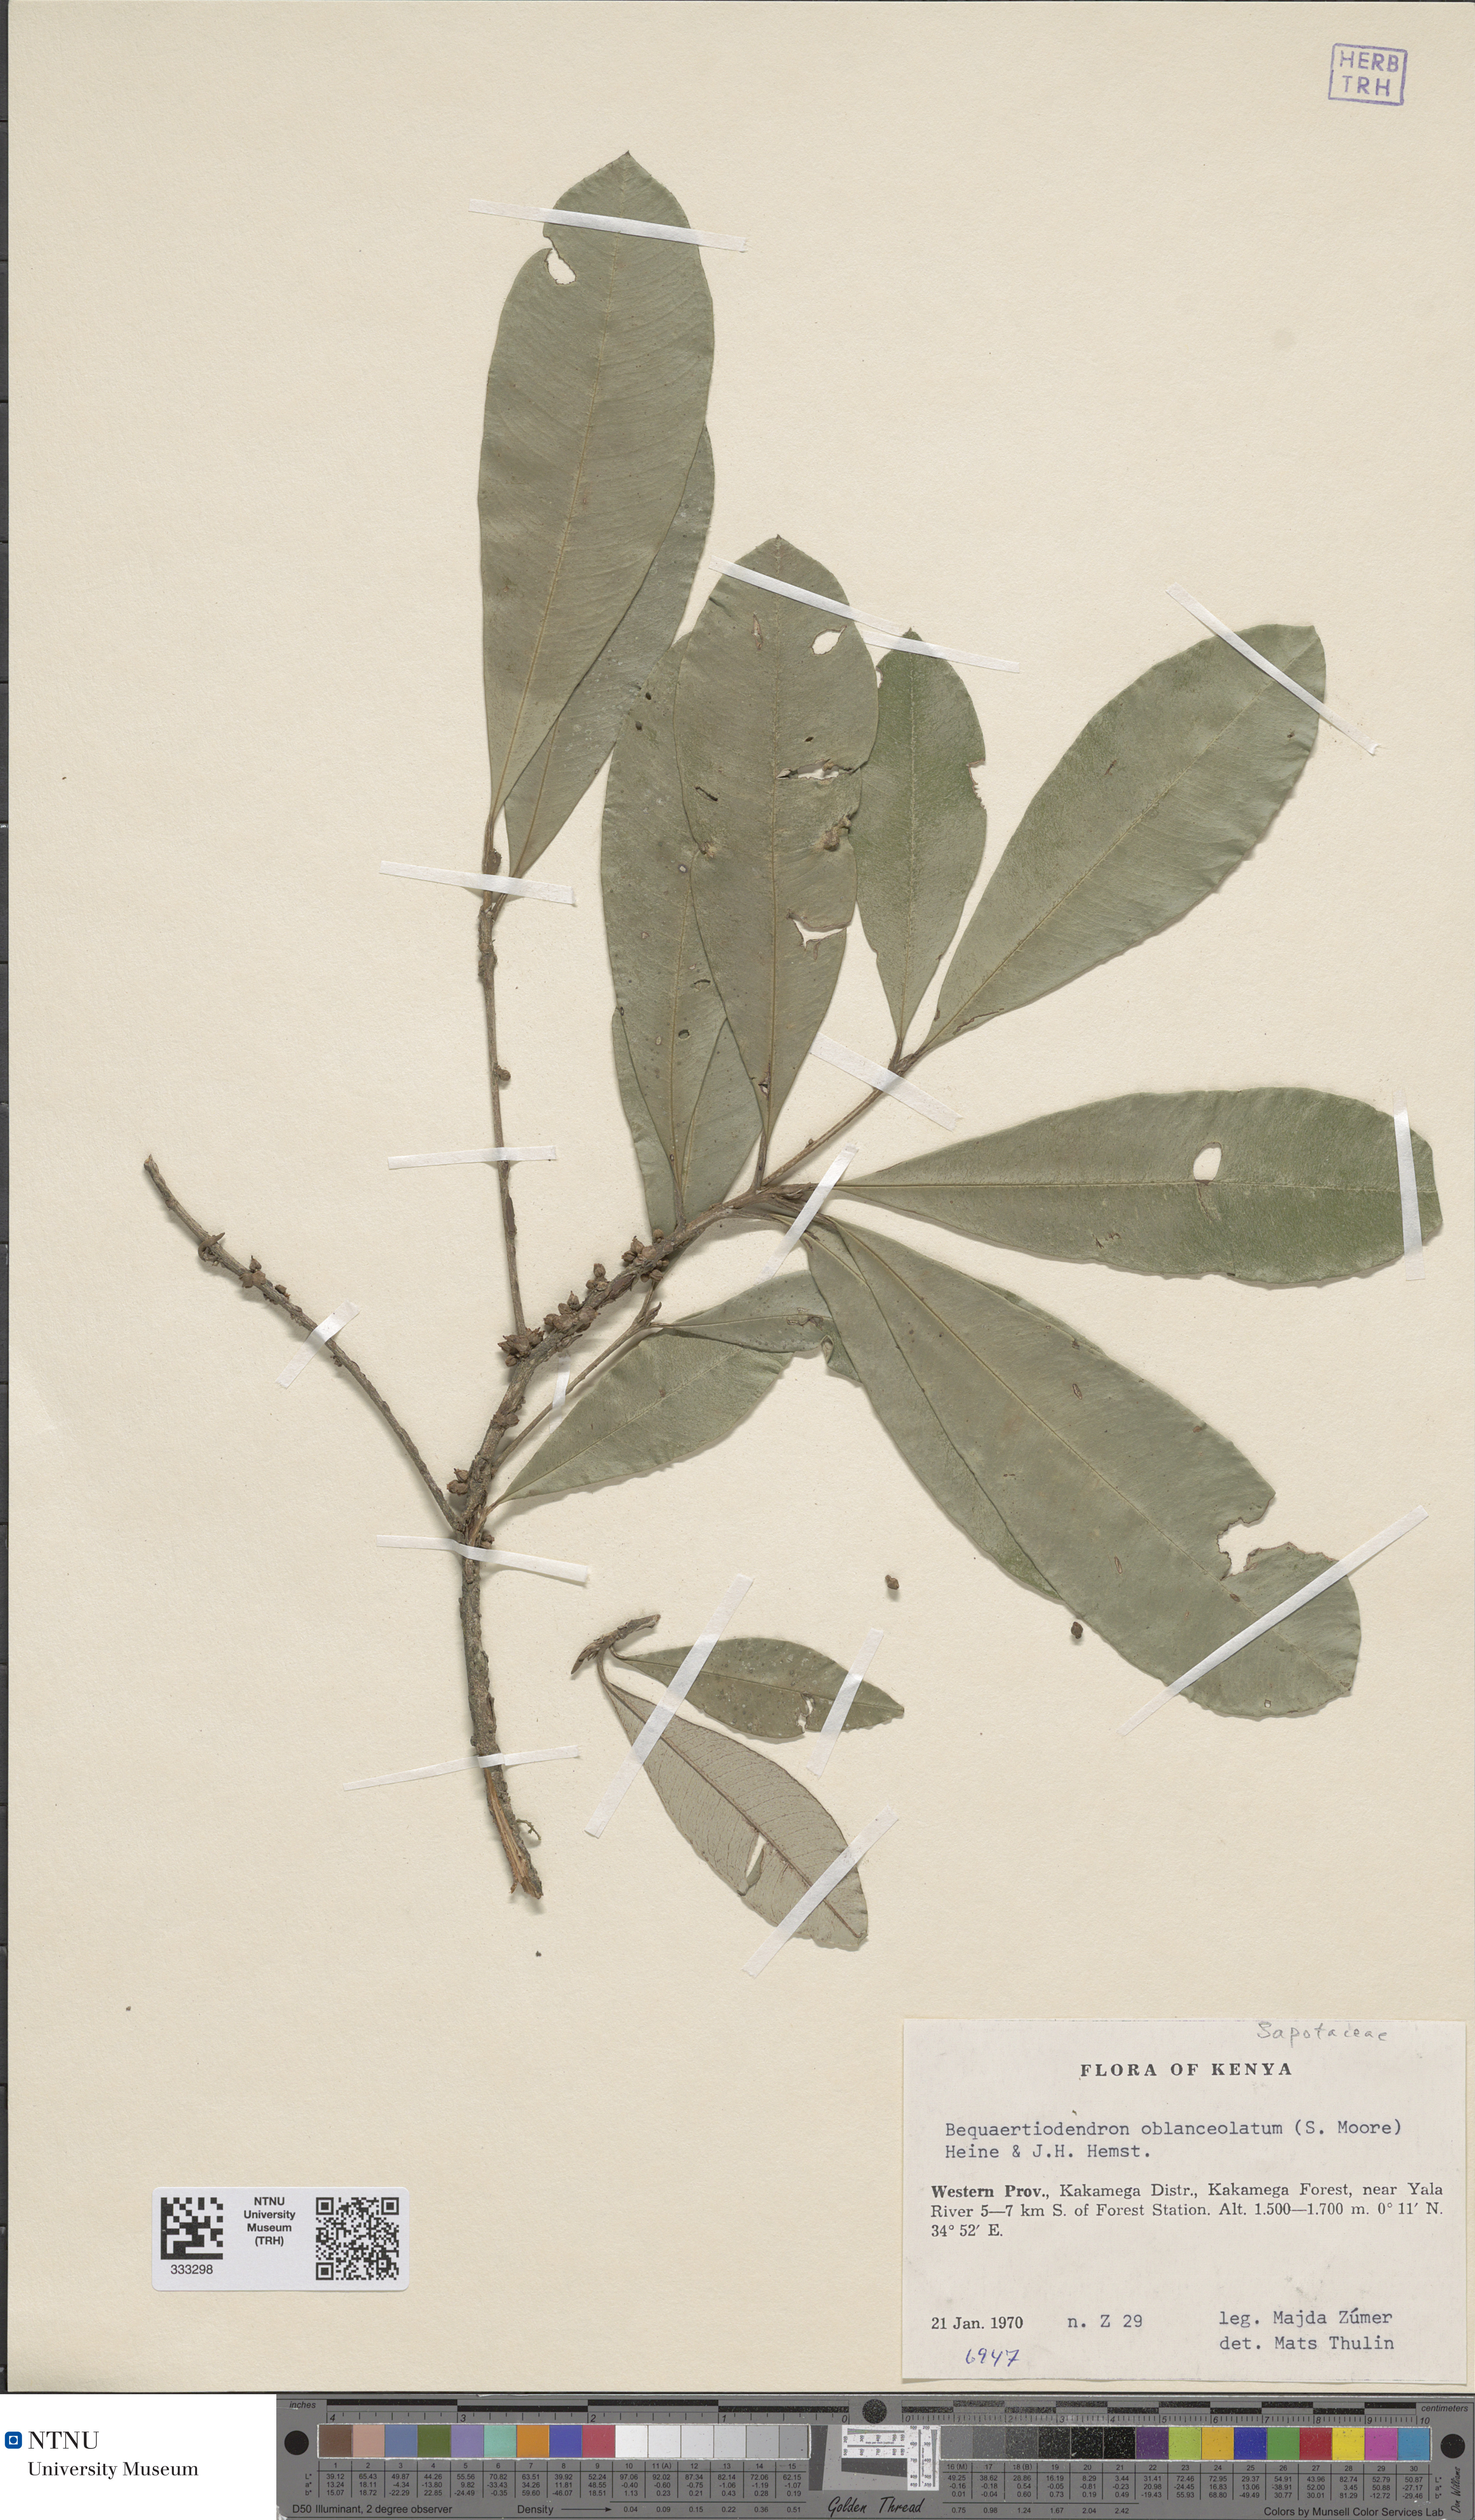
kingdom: Plantae
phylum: Tracheophyta
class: Magnoliopsida
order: Ericales
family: Sapotaceae
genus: Englerophytum
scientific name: Englerophytum oblanceolatum
